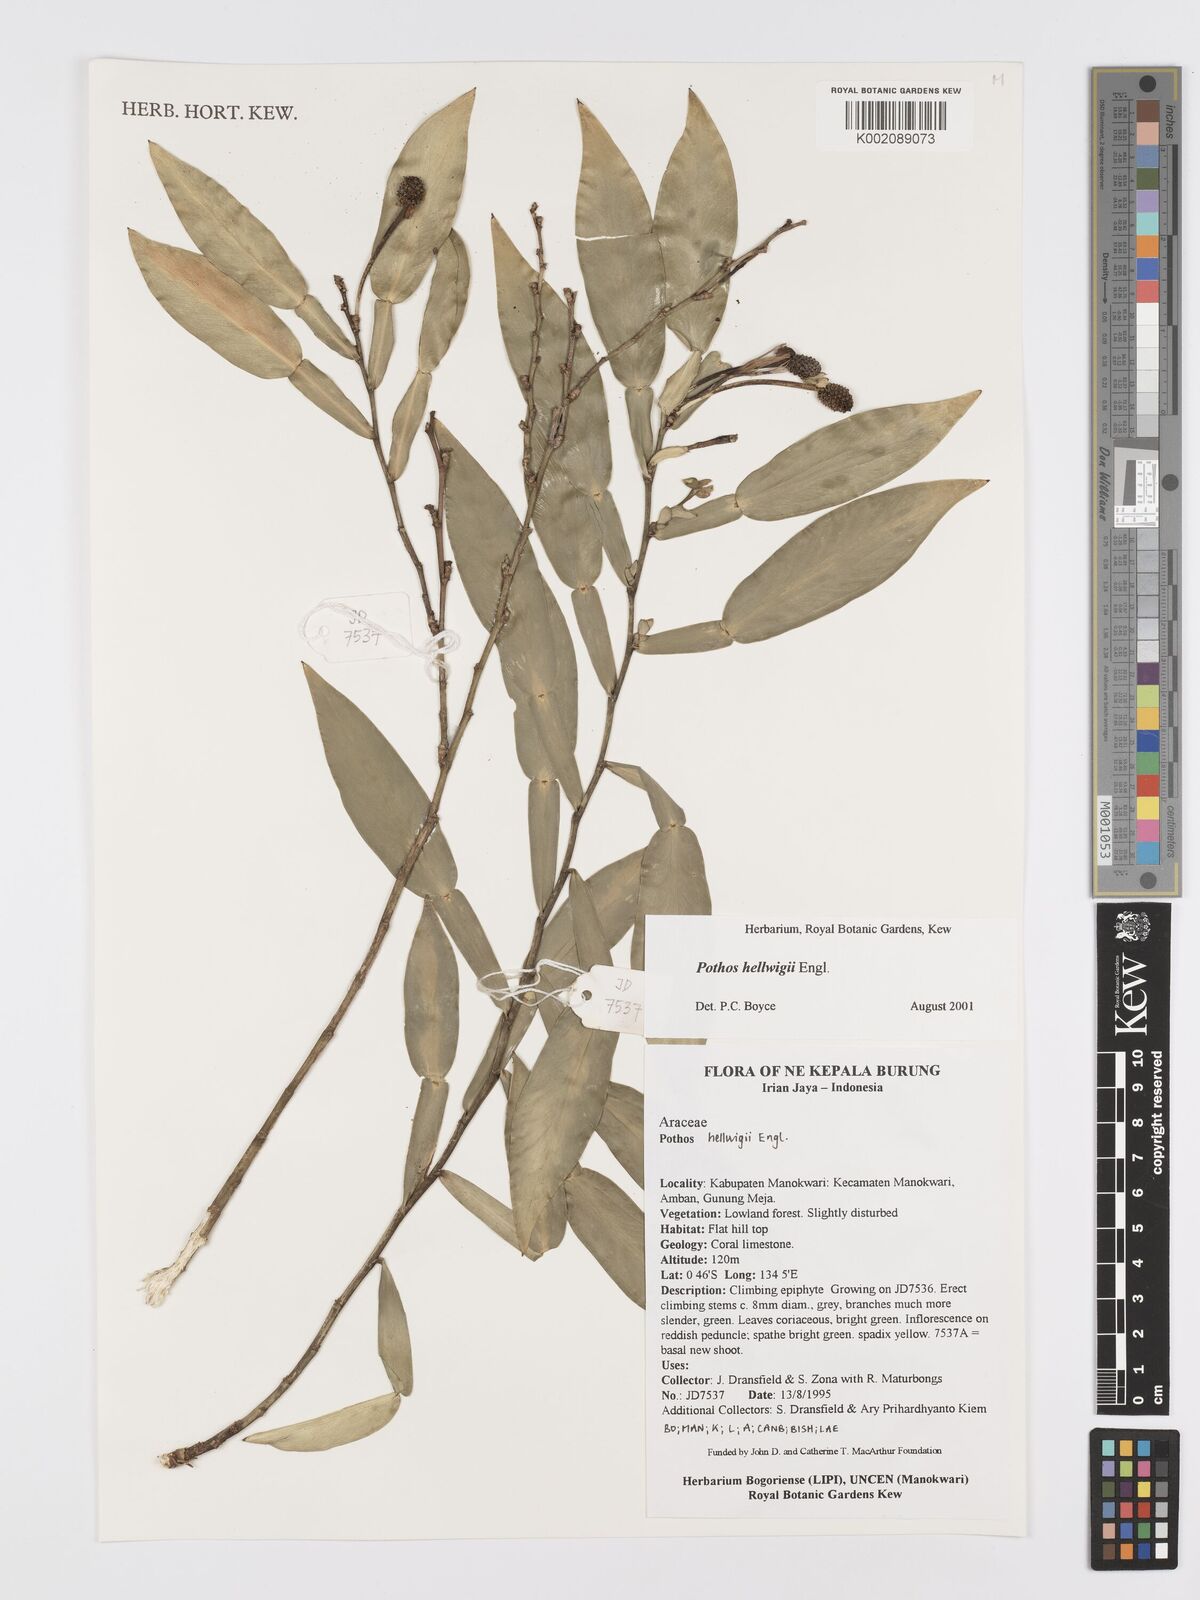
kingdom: Plantae
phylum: Tracheophyta
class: Liliopsida
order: Alismatales
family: Araceae
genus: Pothos
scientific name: Pothos hellwigii
